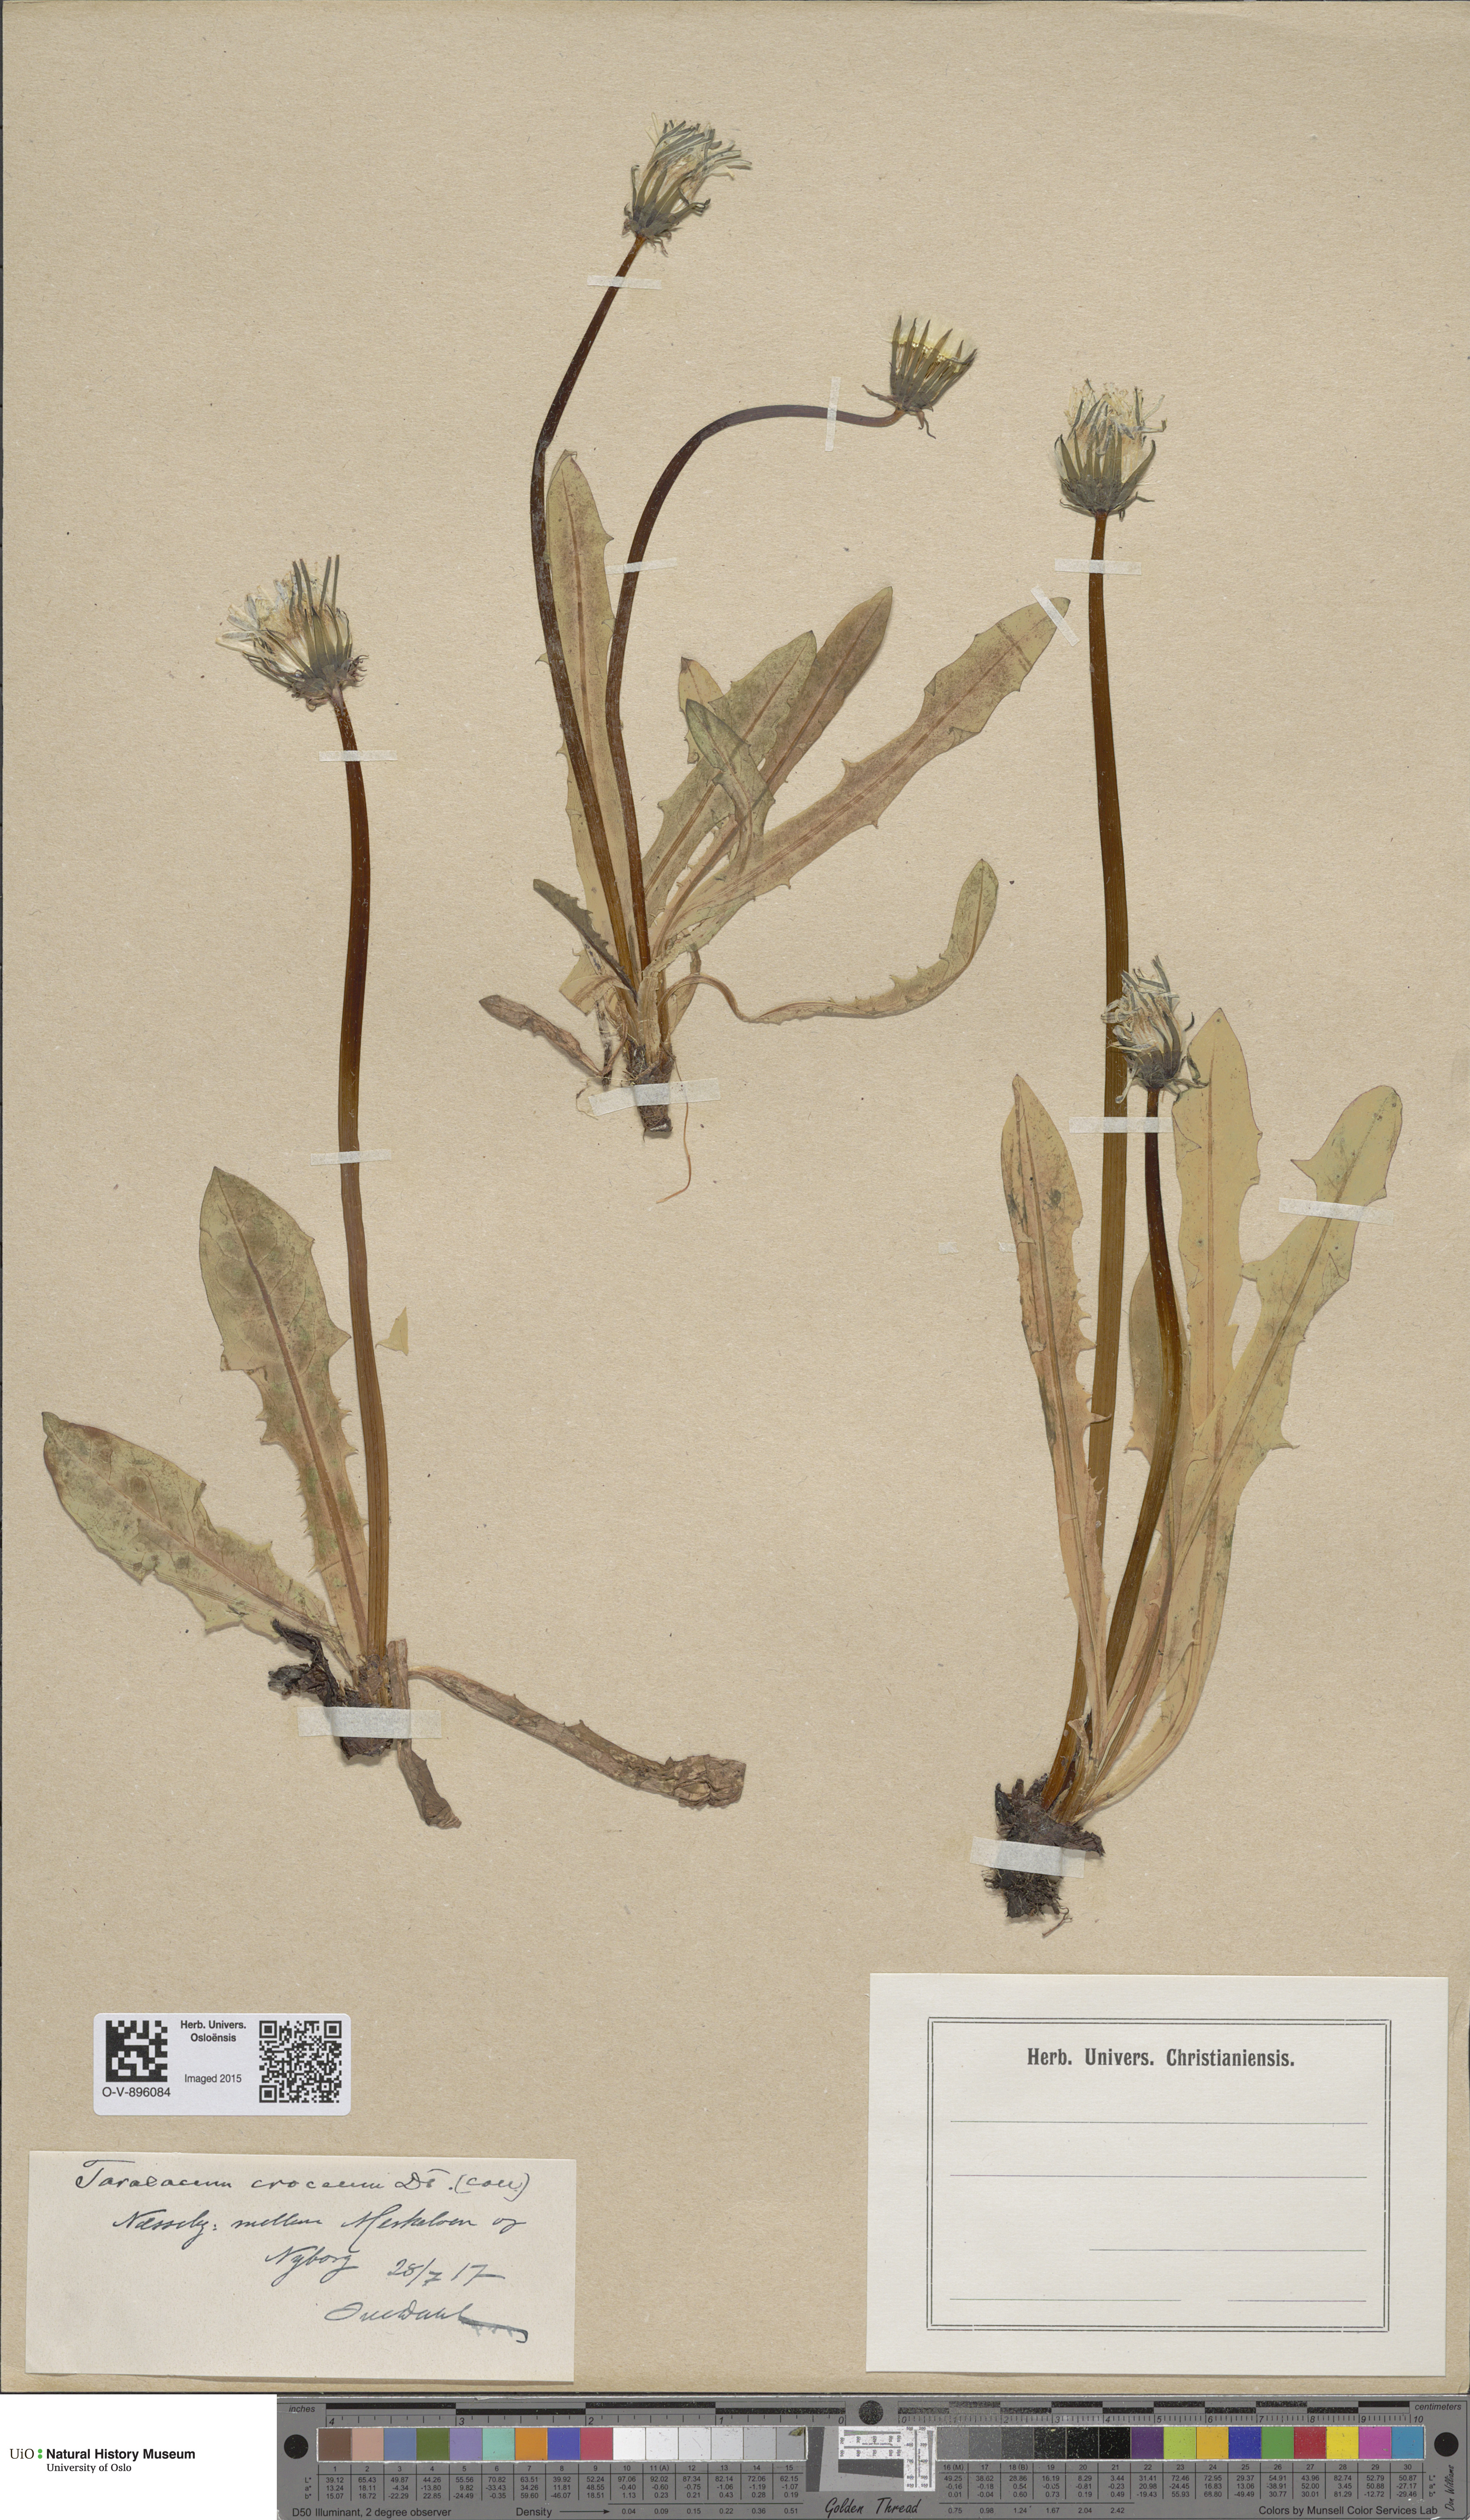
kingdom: Plantae
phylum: Tracheophyta
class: Magnoliopsida
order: Asterales
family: Asteraceae
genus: Taraxacum
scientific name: Taraxacum croceum
